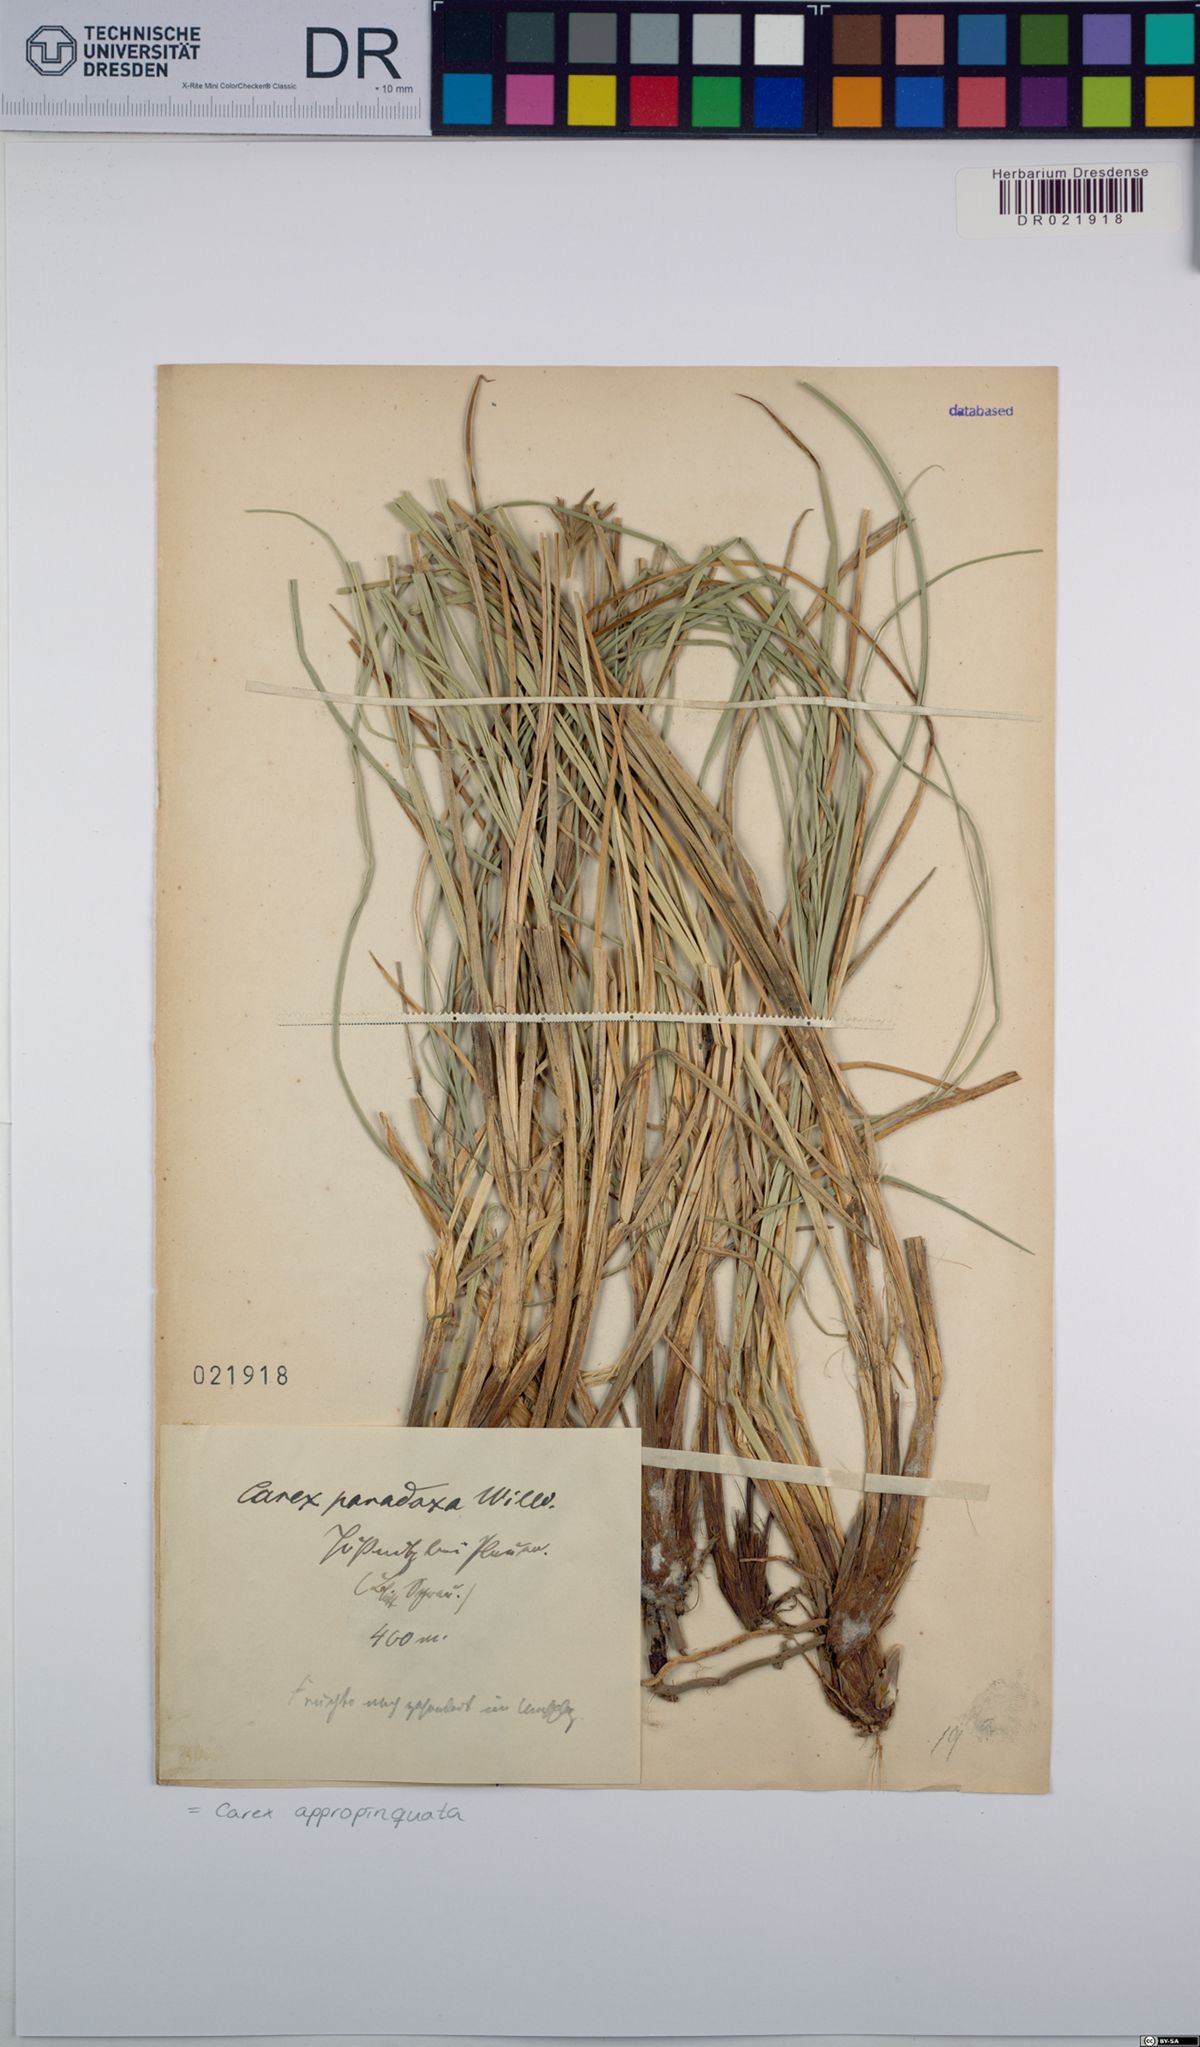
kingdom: Plantae
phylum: Tracheophyta
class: Liliopsida
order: Poales
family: Cyperaceae
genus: Carex
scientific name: Carex appropinquata
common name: Fibrous tussock-sedge
